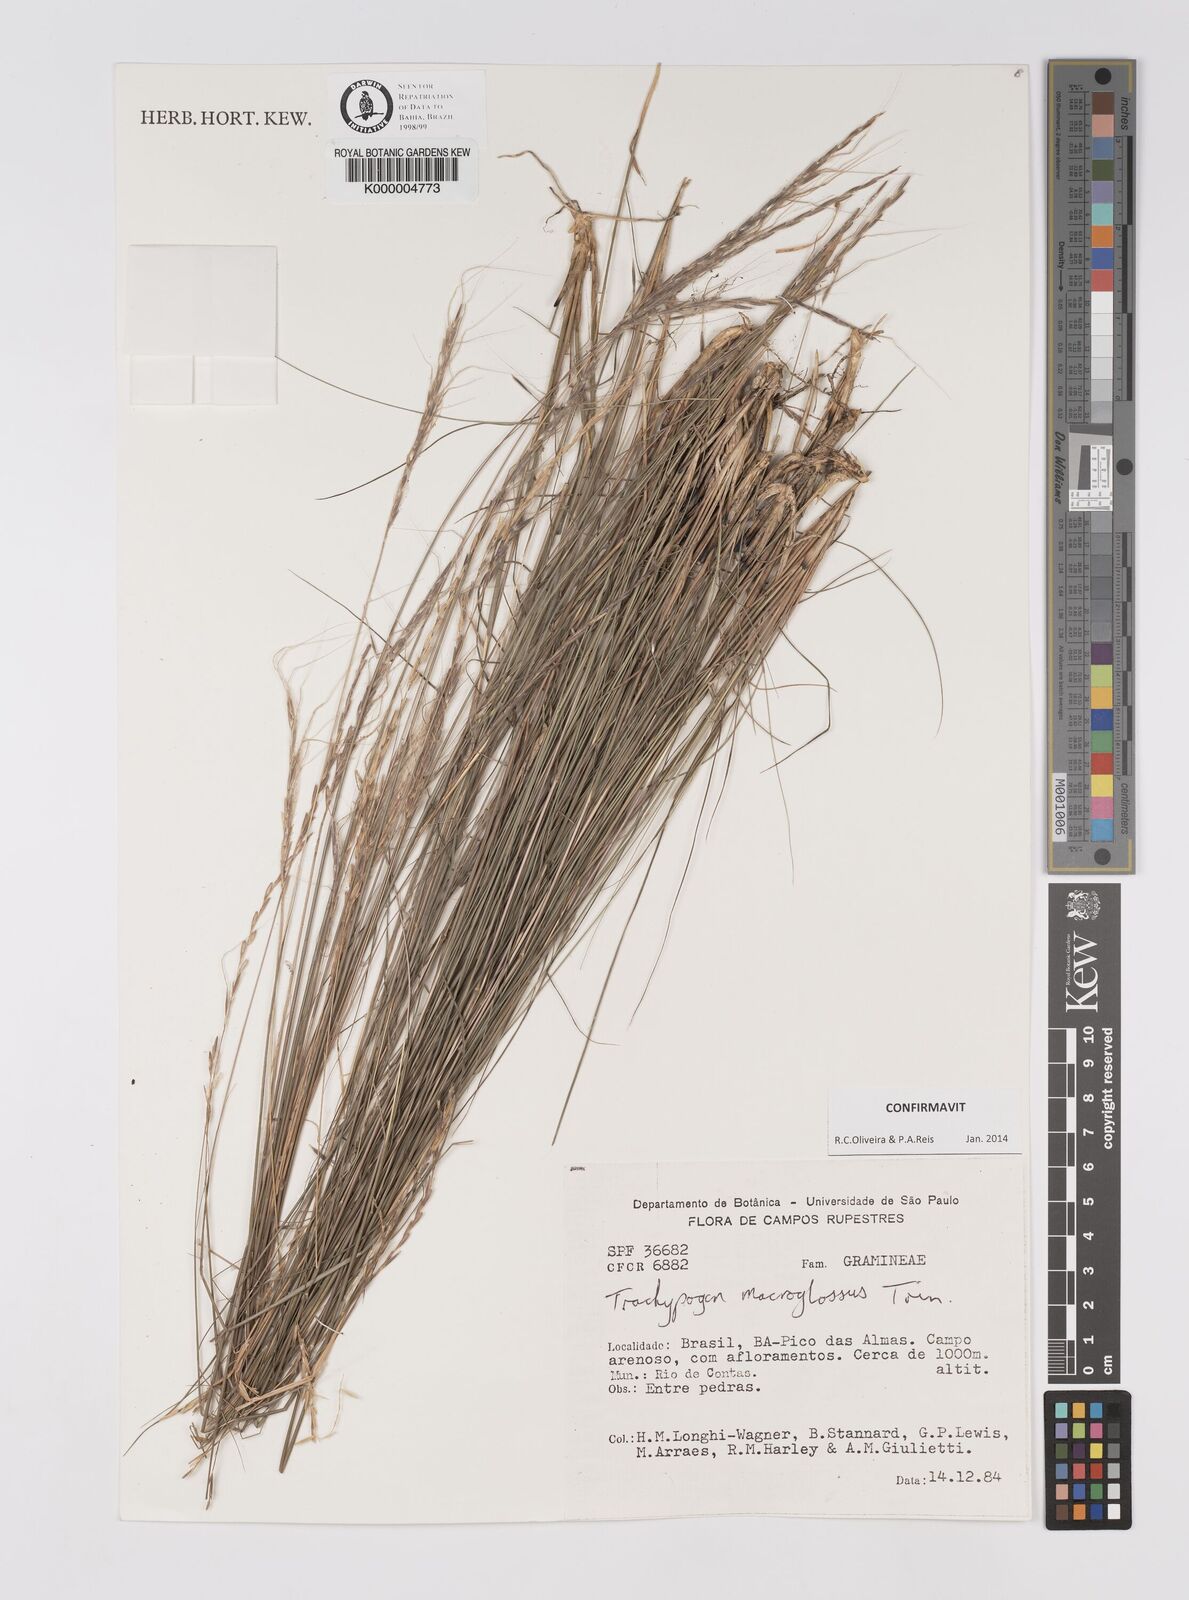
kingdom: Plantae
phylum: Tracheophyta
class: Liliopsida
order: Poales
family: Poaceae
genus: Trachypogon
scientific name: Trachypogon macroglossus
